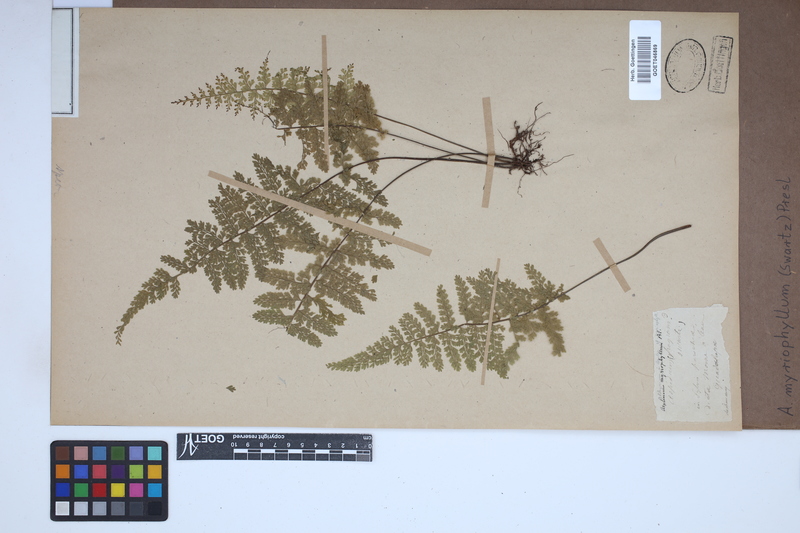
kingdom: Plantae
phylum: Tracheophyta
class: Polypodiopsida
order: Polypodiales
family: Aspleniaceae
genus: Asplenium
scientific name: Asplenium myriophyllum
